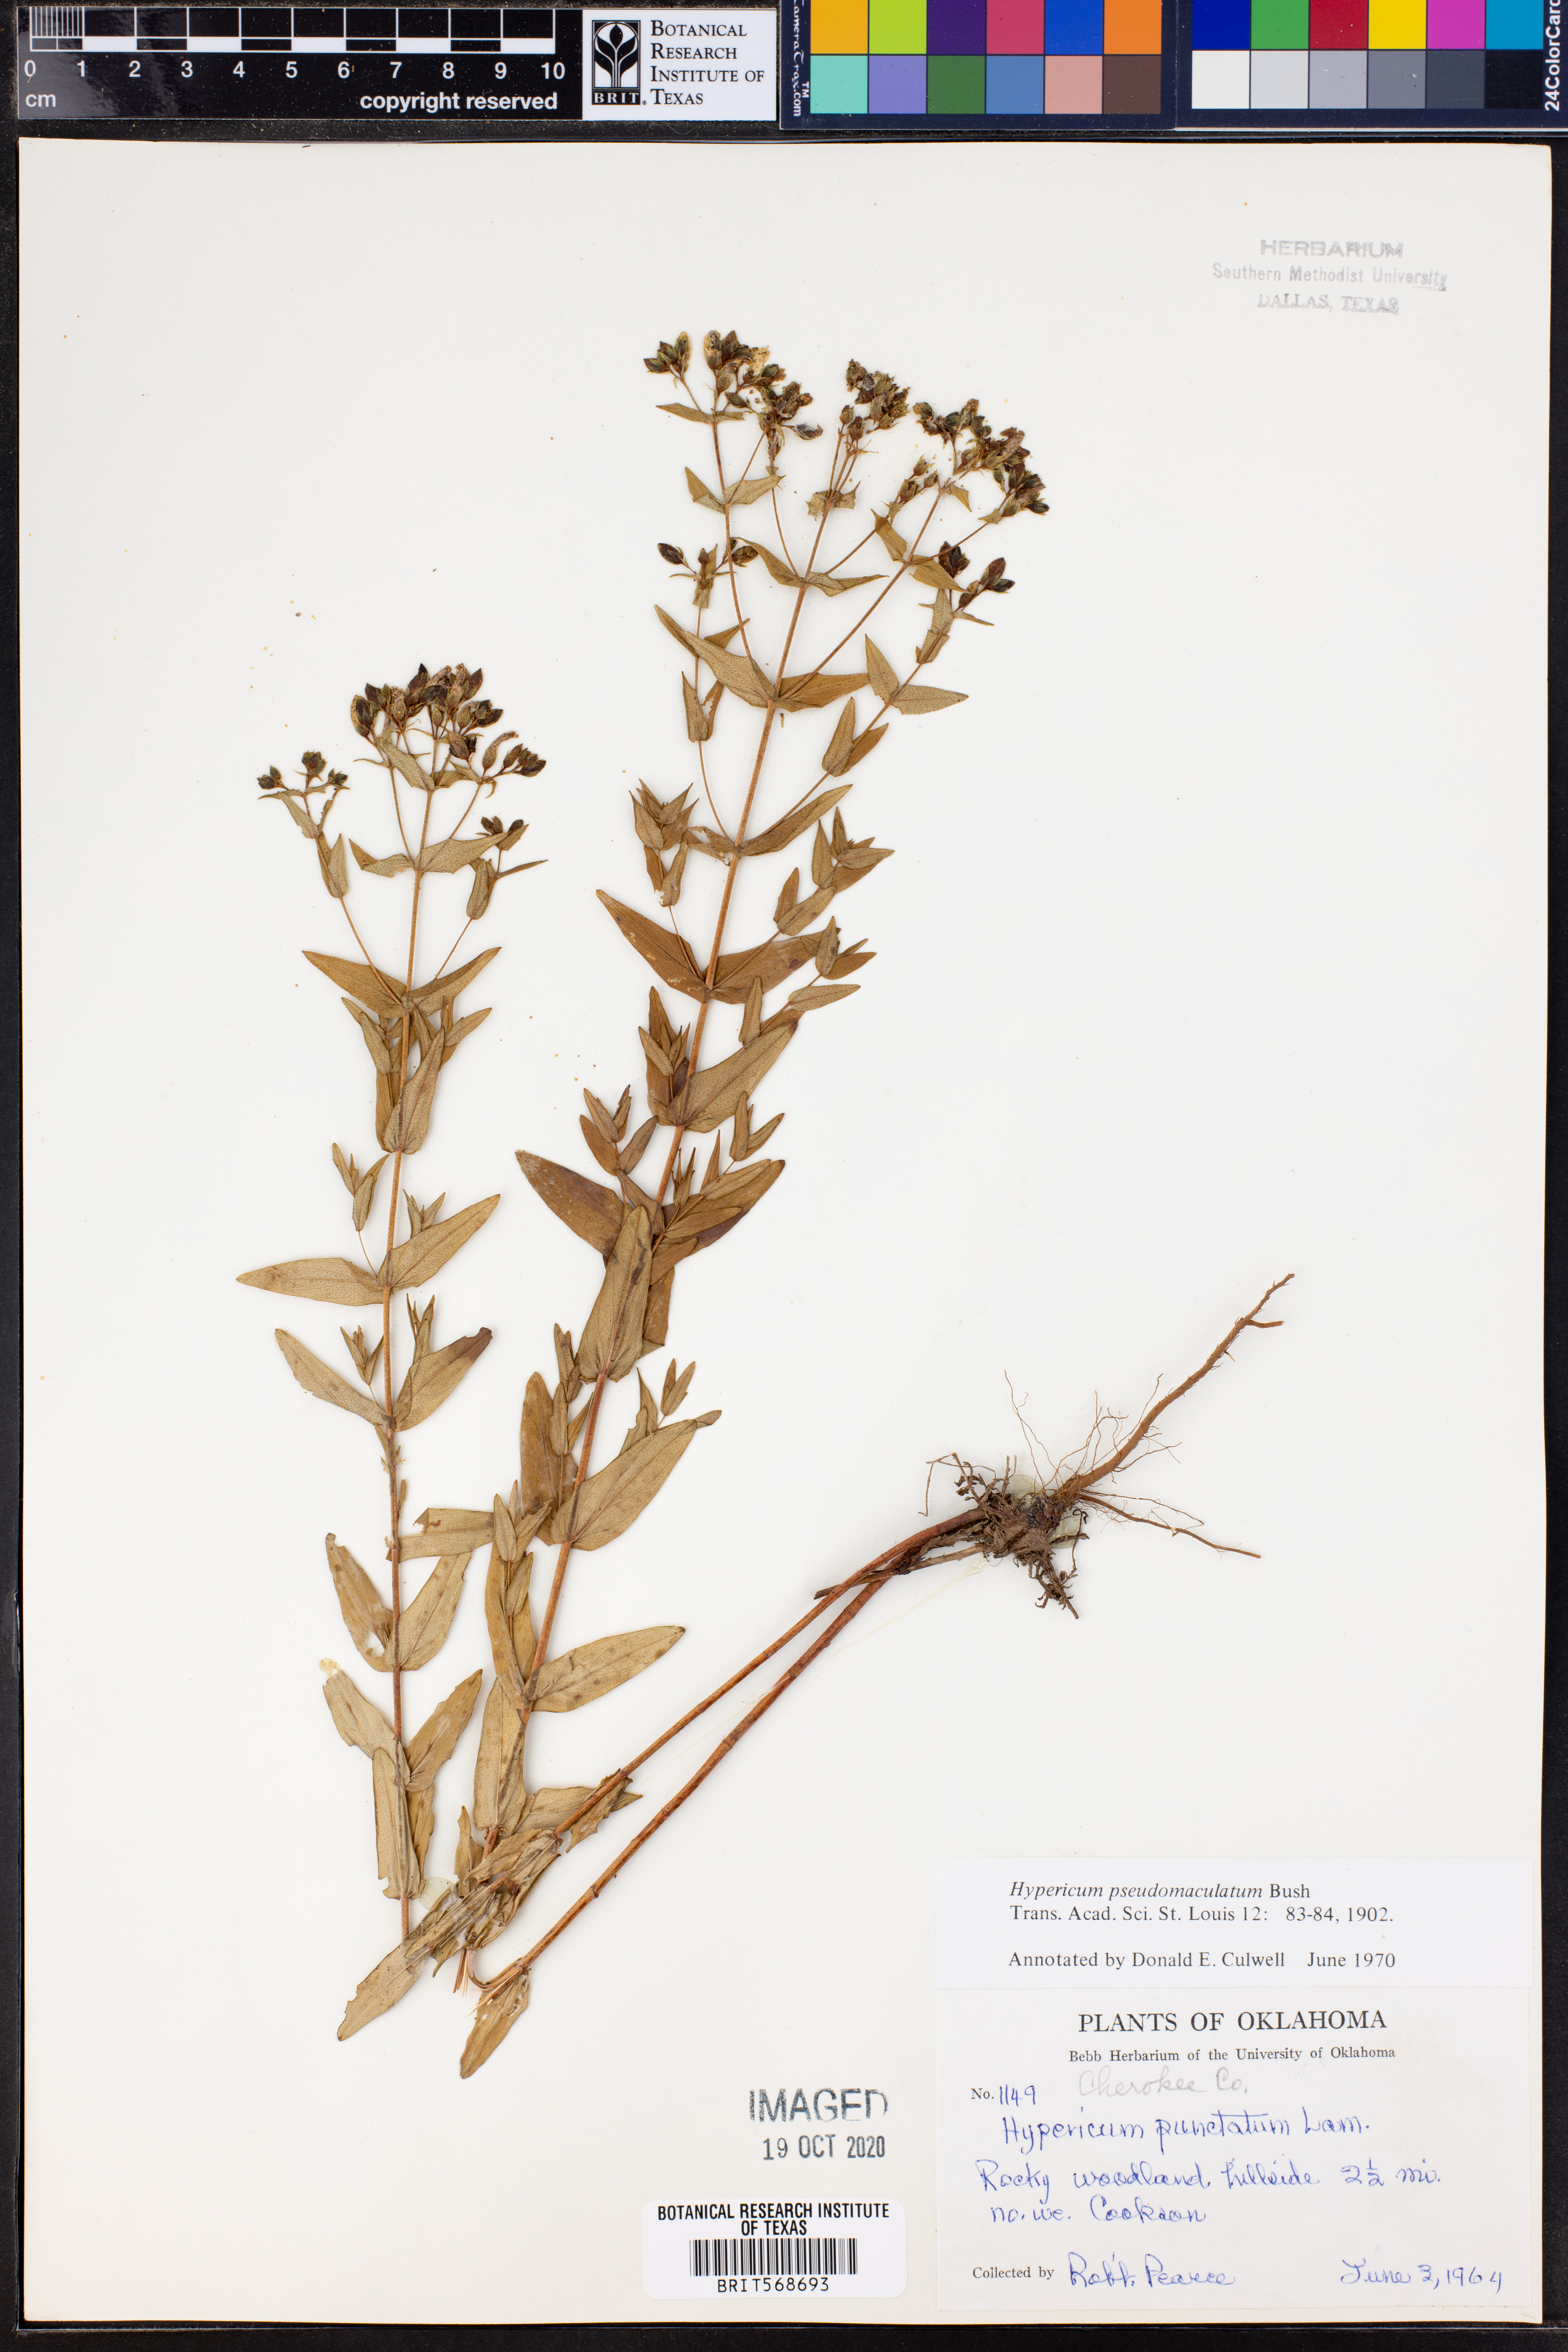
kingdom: Plantae
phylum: Tracheophyta
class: Magnoliopsida
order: Malpighiales
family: Hypericaceae
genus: Hypericum
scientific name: Hypericum pseudomaculatum
